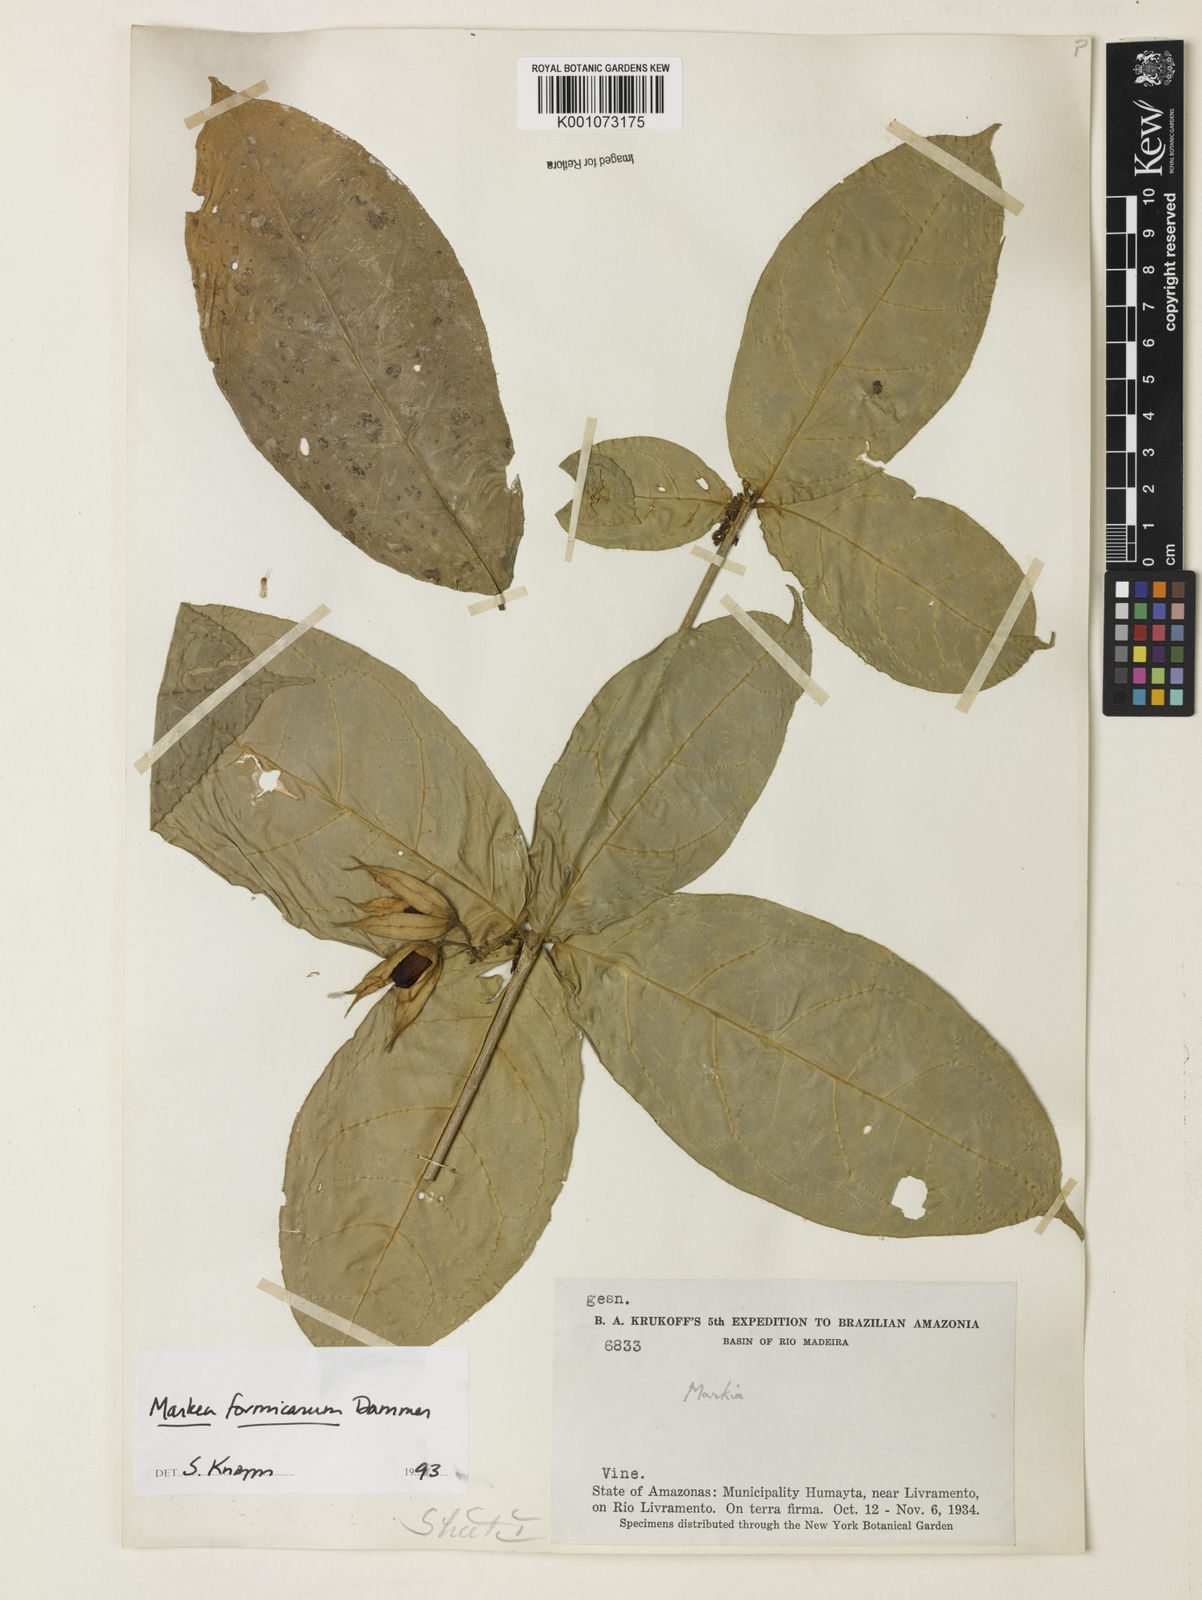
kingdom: Plantae
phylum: Tracheophyta
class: Magnoliopsida
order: Solanales
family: Solanaceae
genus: Markea
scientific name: Markea formicarum
